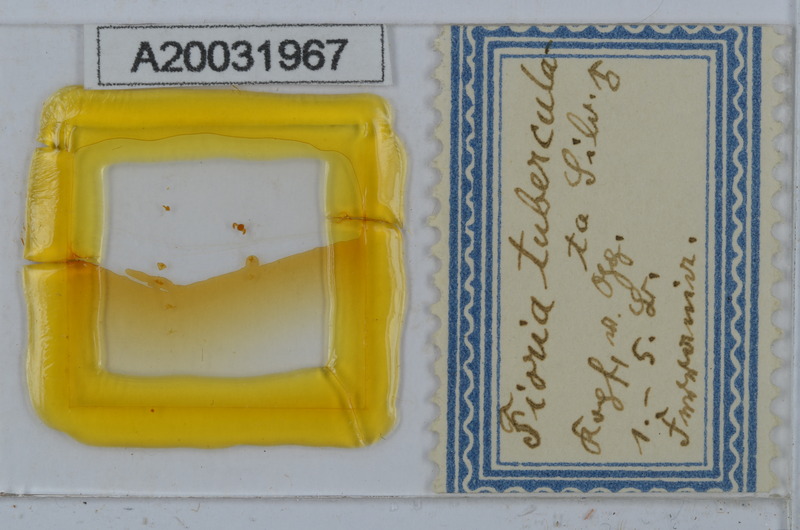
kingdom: Animalia
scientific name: Animalia
